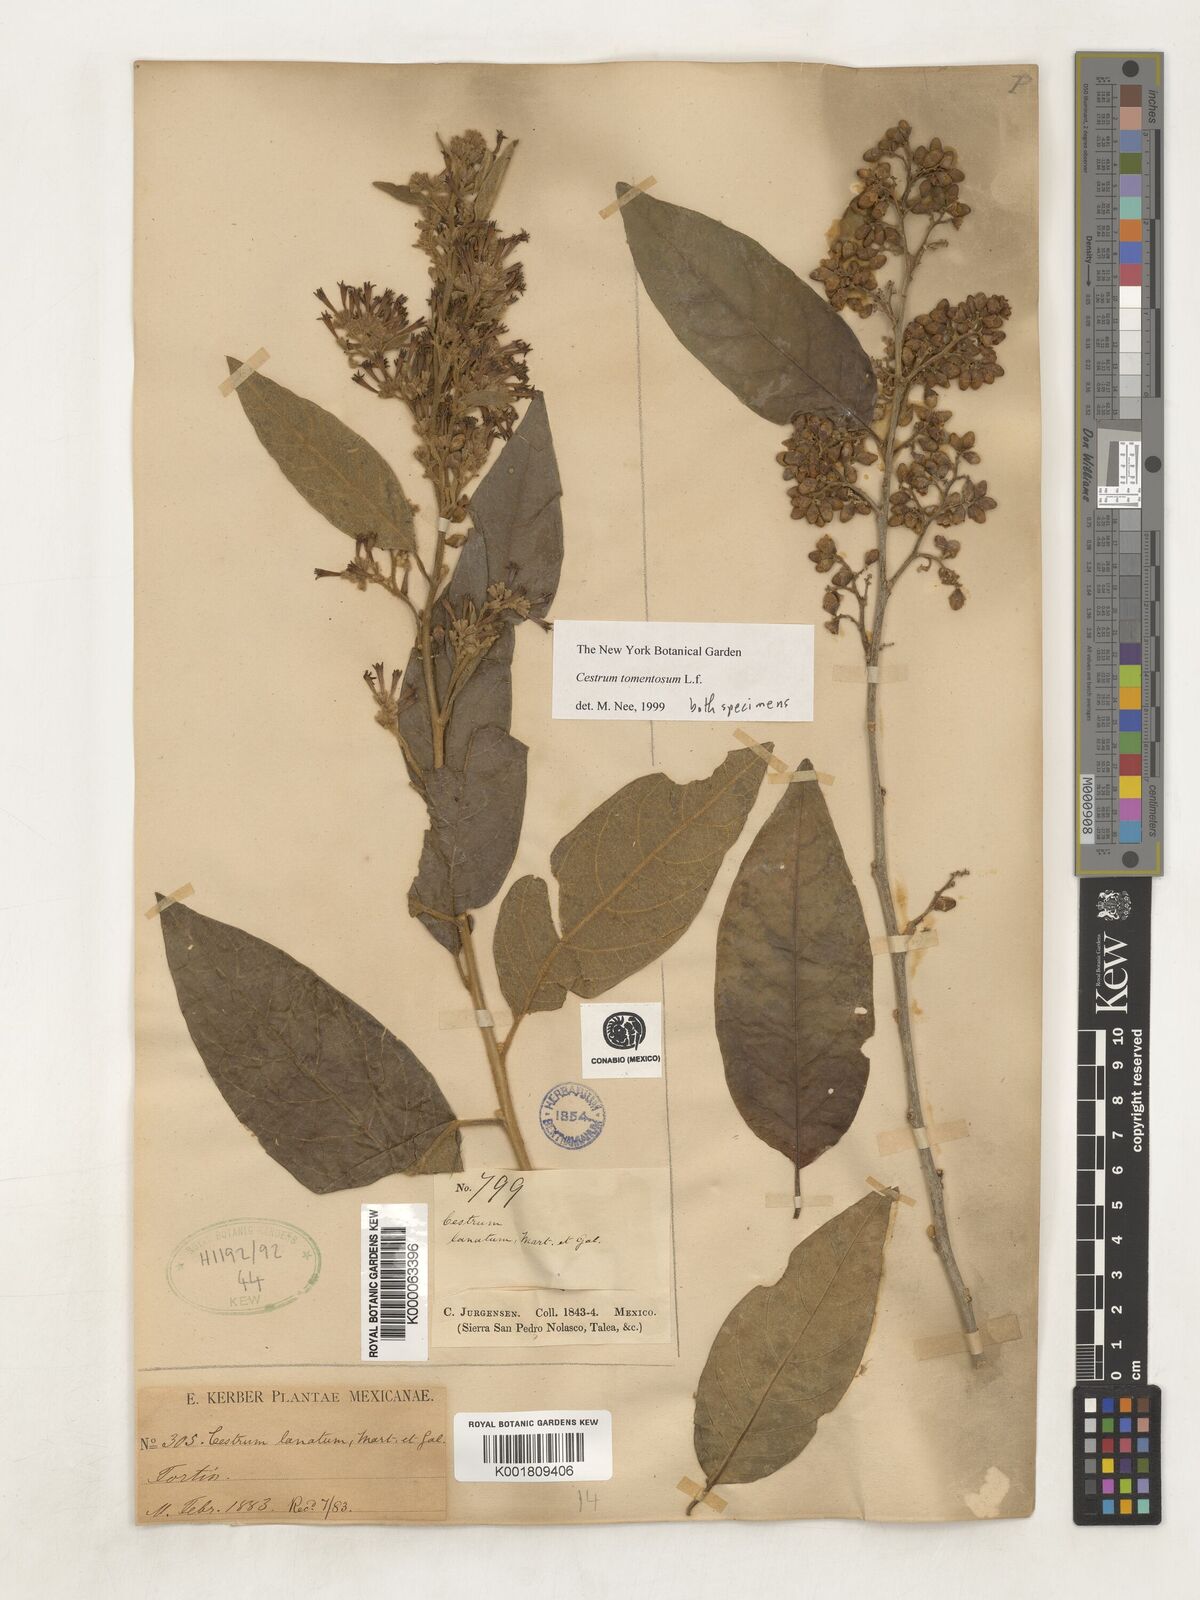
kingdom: Plantae
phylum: Tracheophyta
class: Magnoliopsida
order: Solanales
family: Solanaceae
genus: Cestrum
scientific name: Cestrum tomentosum
